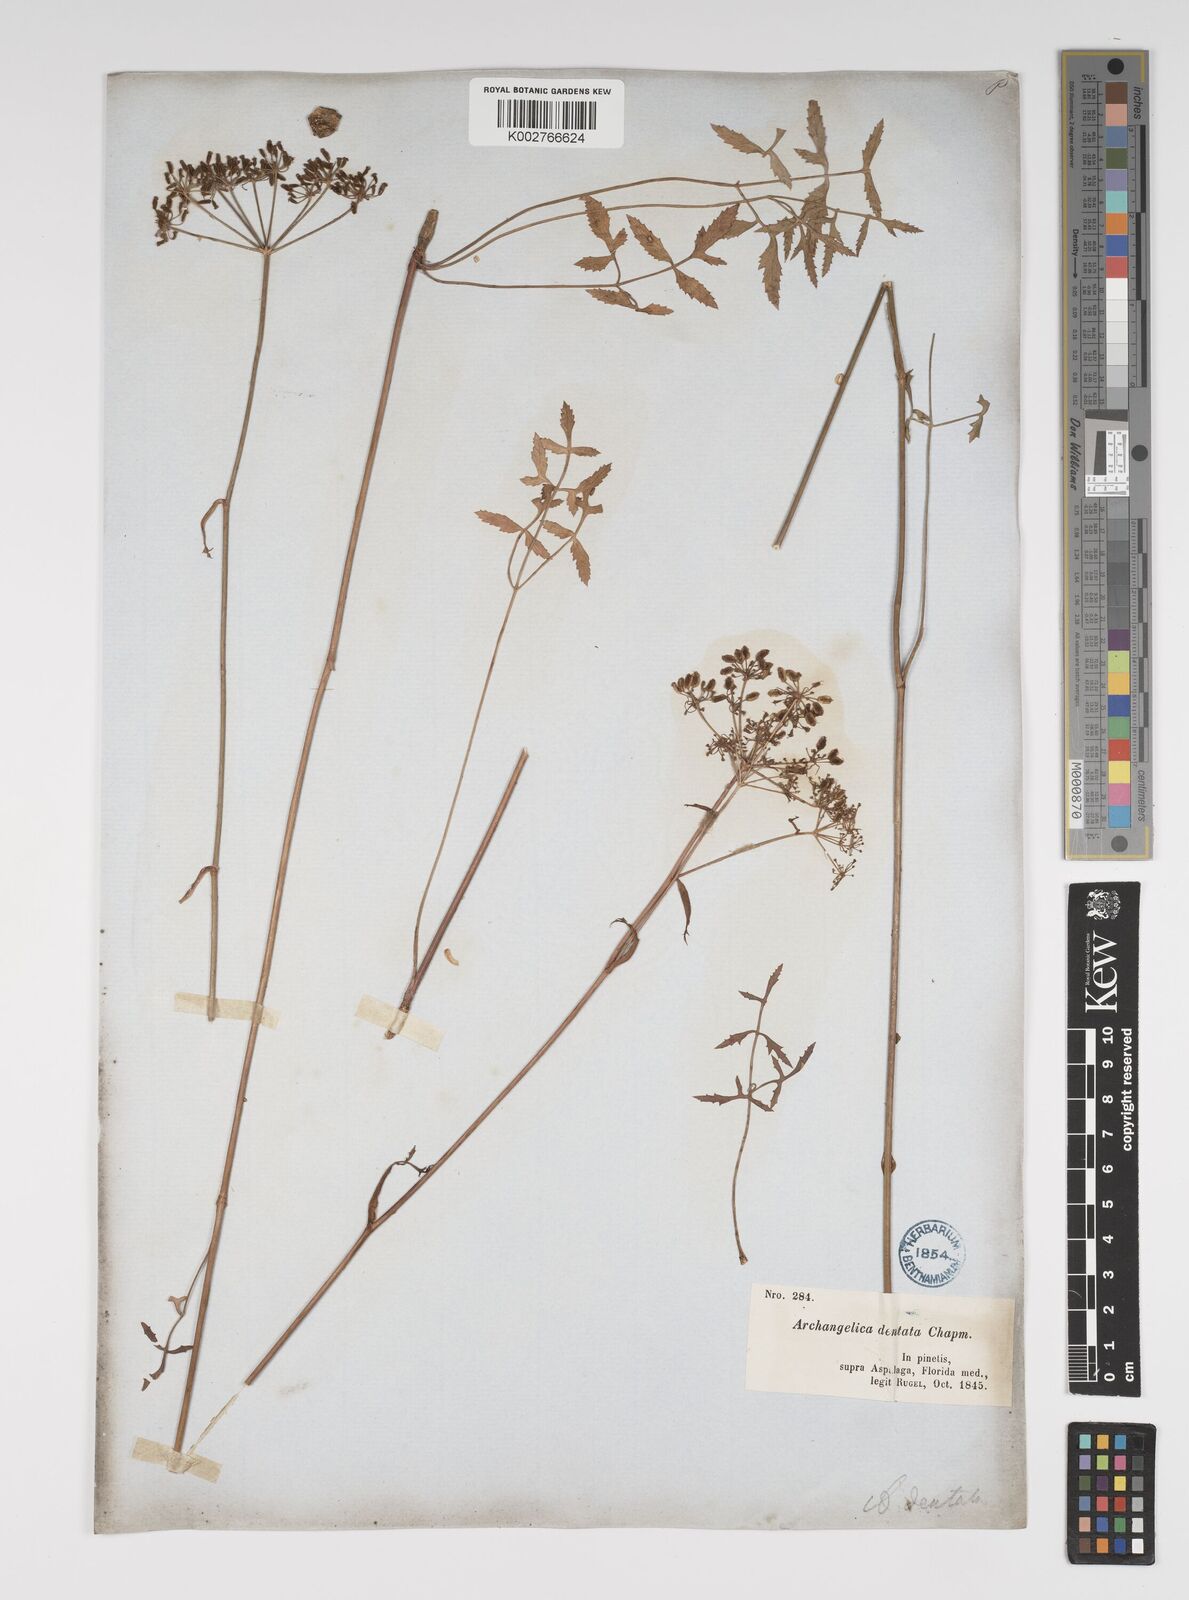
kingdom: Plantae
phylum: Tracheophyta
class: Magnoliopsida
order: Apiales
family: Apiaceae
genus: Angelica
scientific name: Angelica venenosa
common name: Hairy angelica
